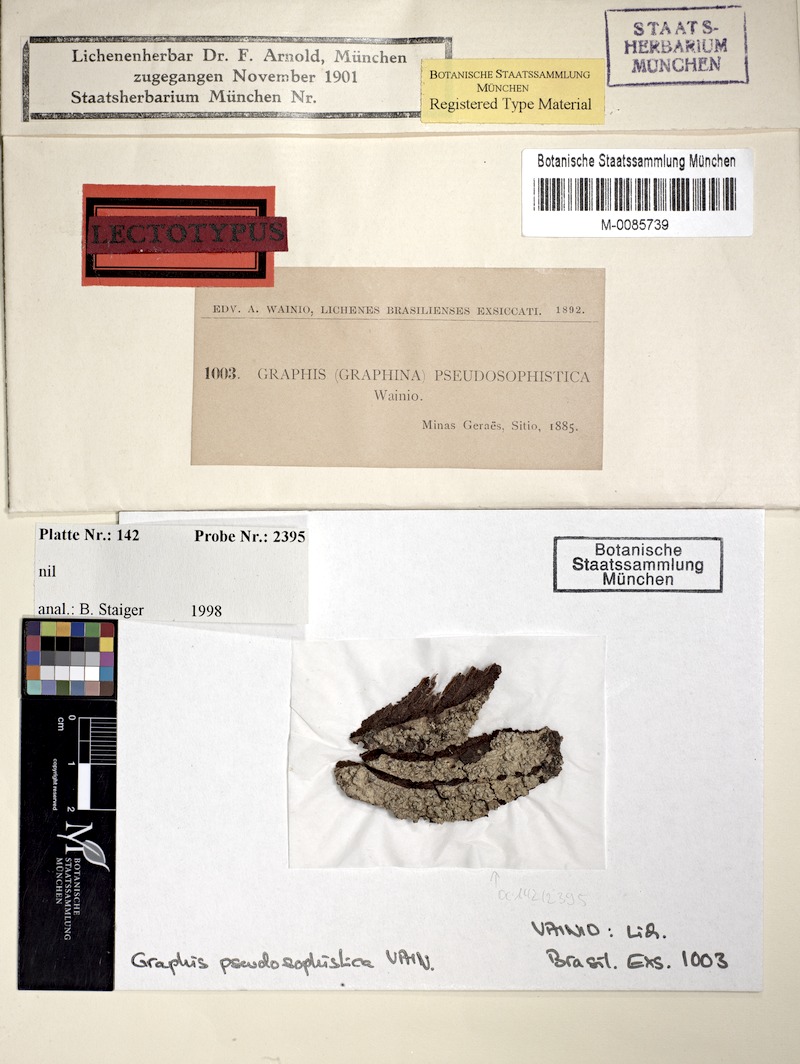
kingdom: Fungi
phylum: Ascomycota
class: Lecanoromycetes
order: Ostropales
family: Graphidaceae
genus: Graphis
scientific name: Graphis
